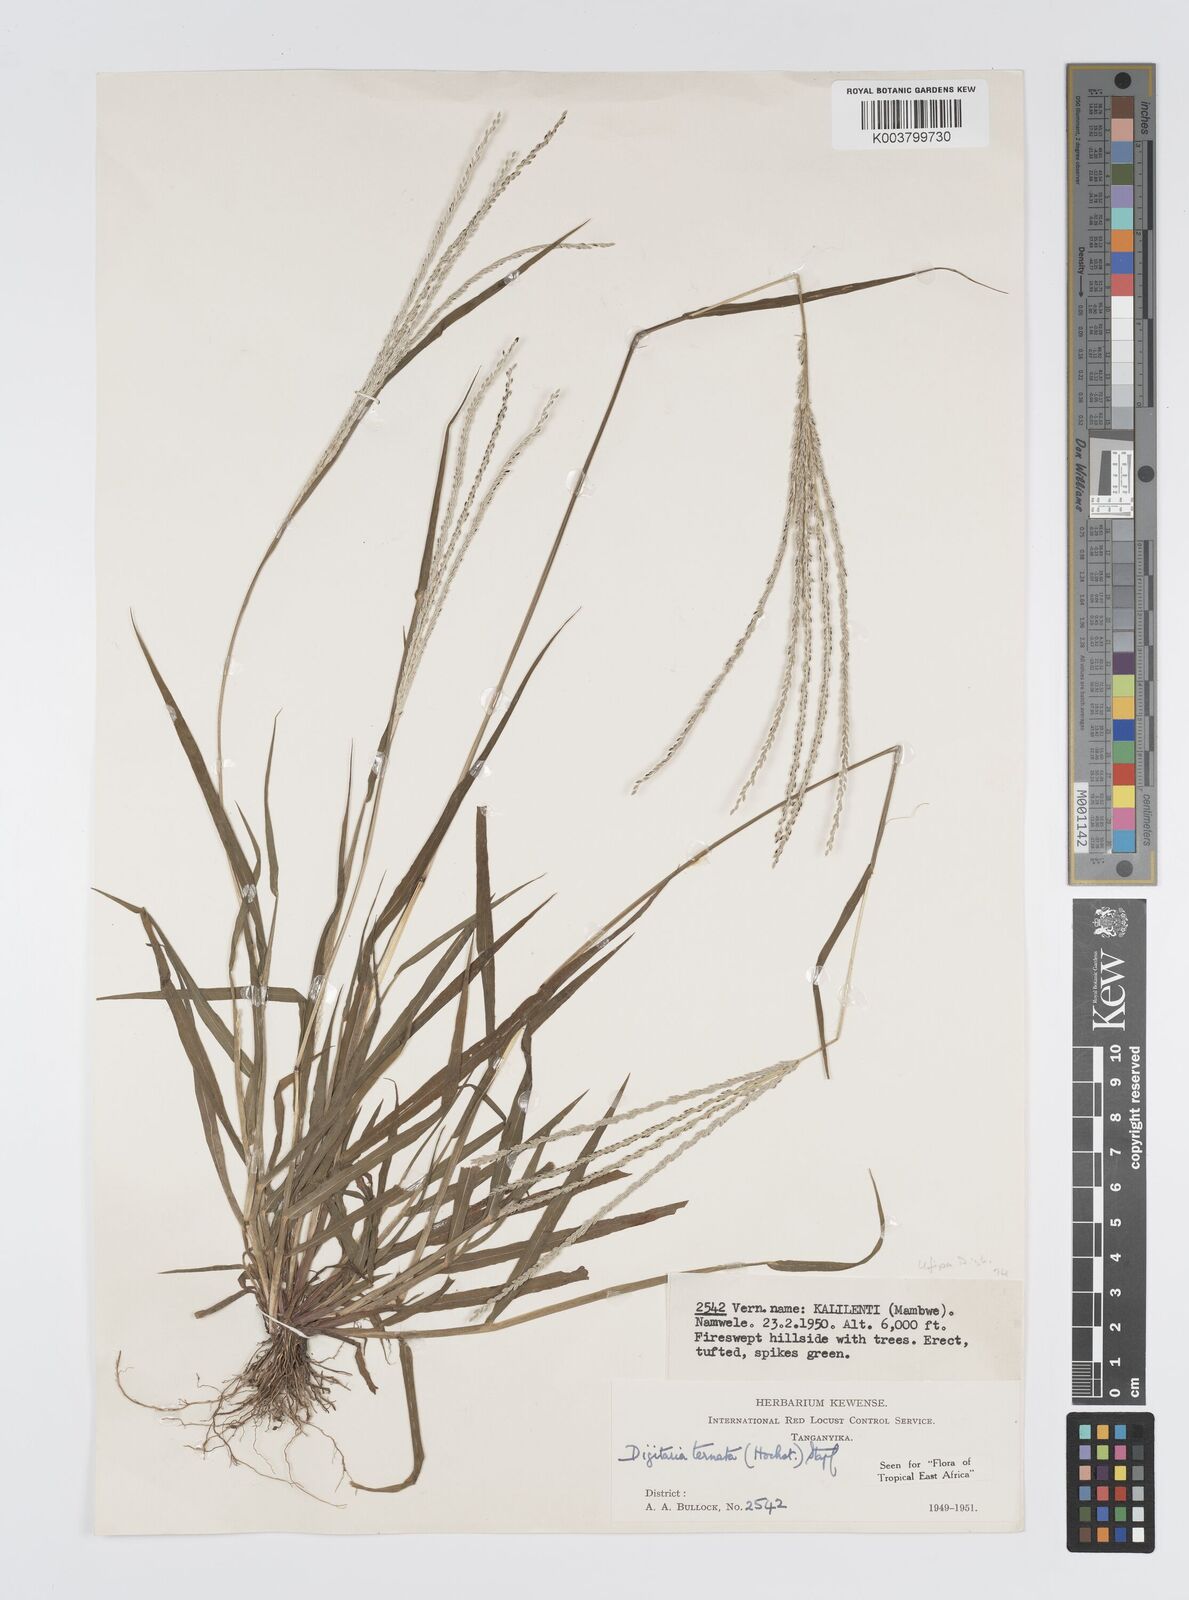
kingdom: Plantae
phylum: Tracheophyta
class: Liliopsida
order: Poales
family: Poaceae
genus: Digitaria
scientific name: Digitaria ternata
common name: Blackseed crabgrass
